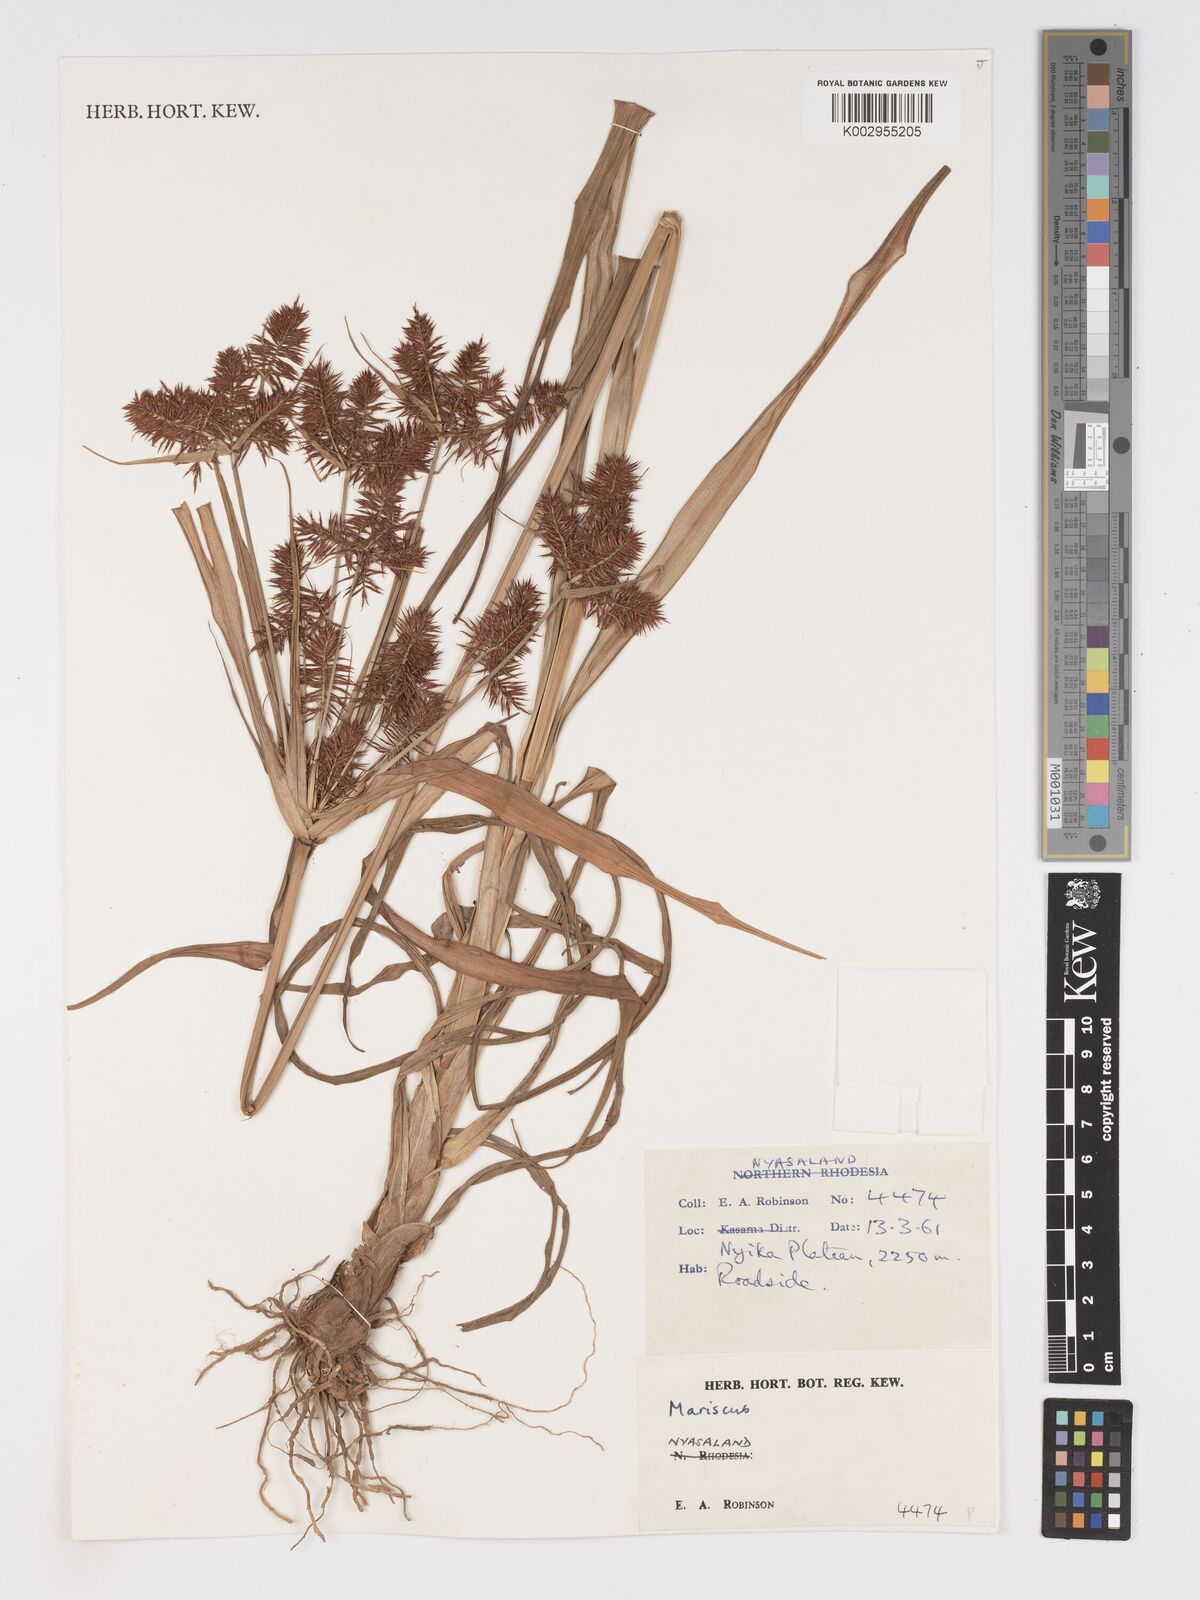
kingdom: Plantae
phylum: Tracheophyta
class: Liliopsida
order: Poales
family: Cyperaceae
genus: Cyperus
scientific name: Cyperus
